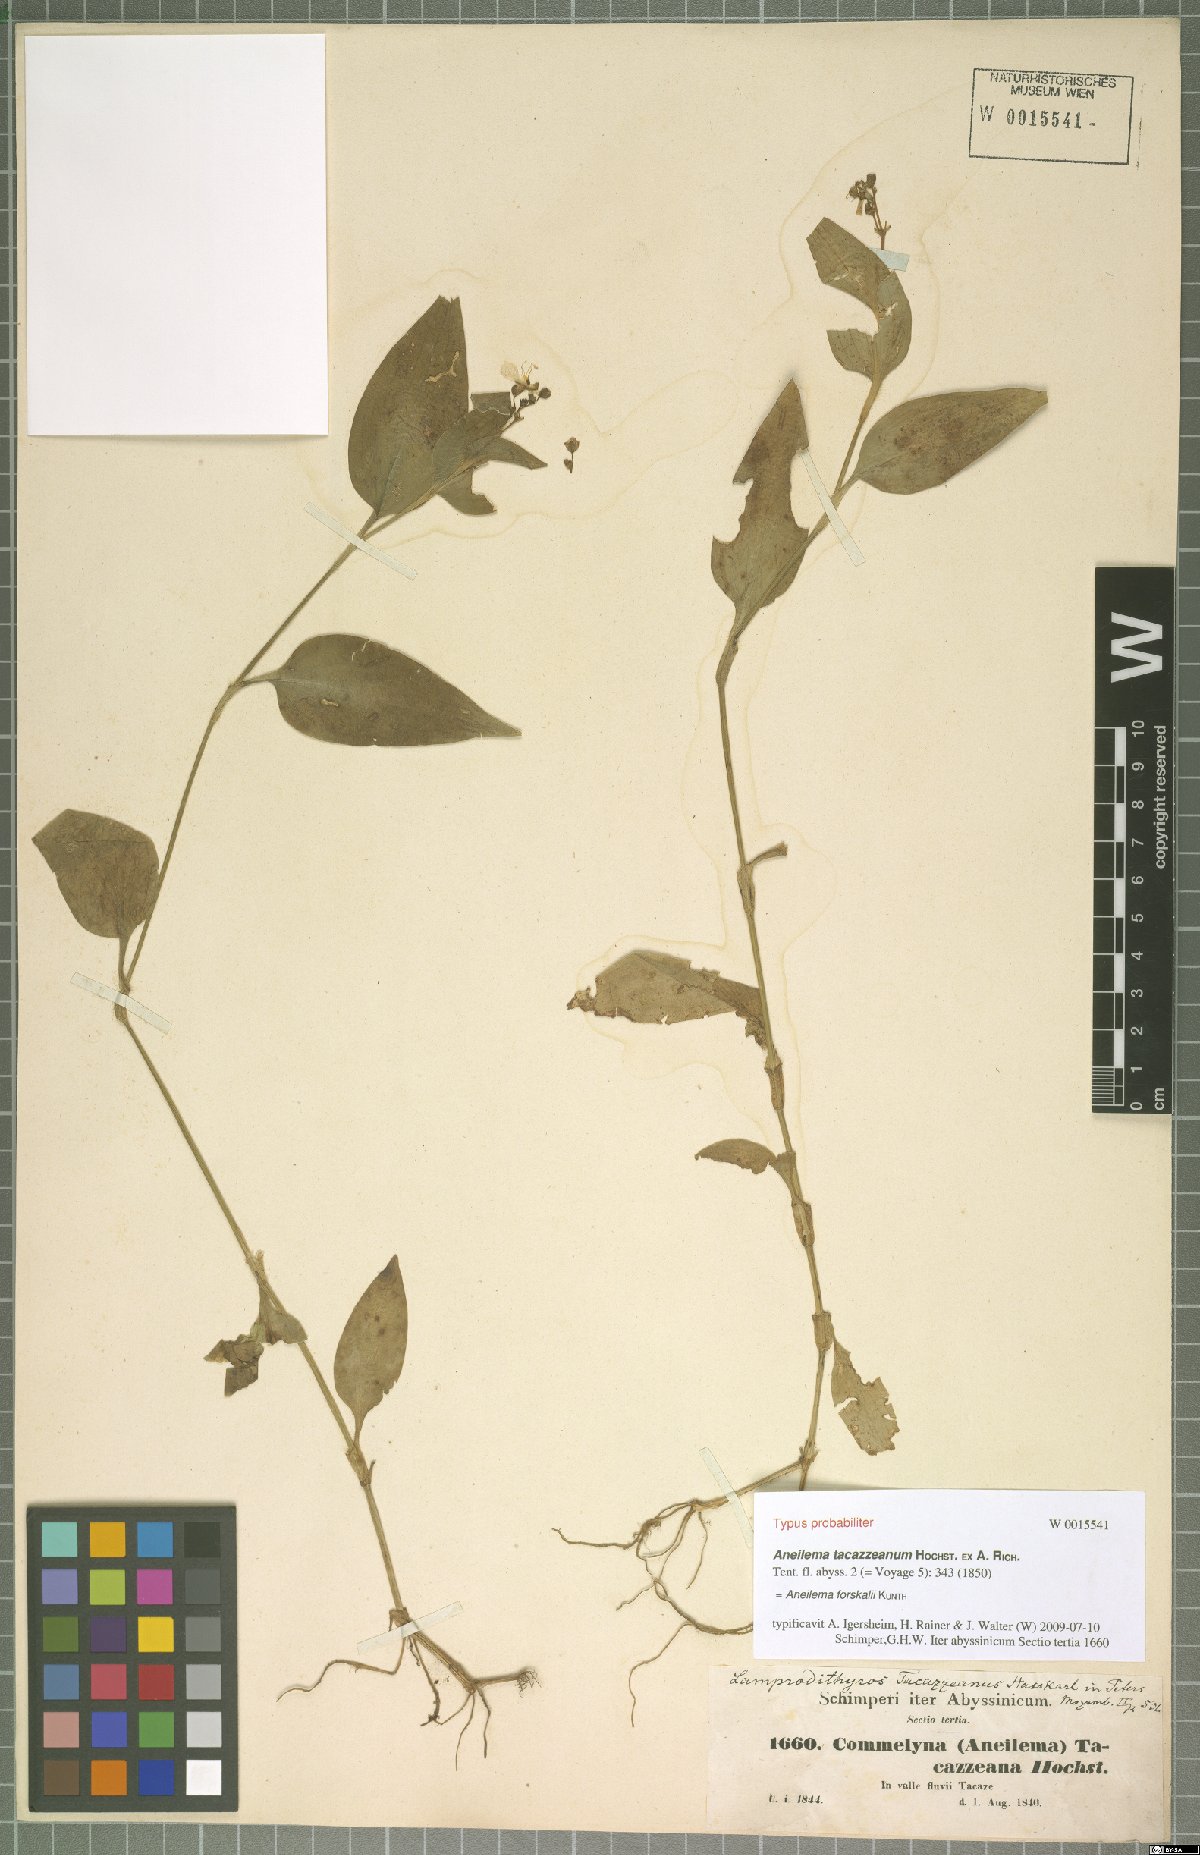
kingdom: Plantae
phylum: Tracheophyta
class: Liliopsida
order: Commelinales
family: Commelinaceae
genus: Aneilema
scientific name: Aneilema forskalii
